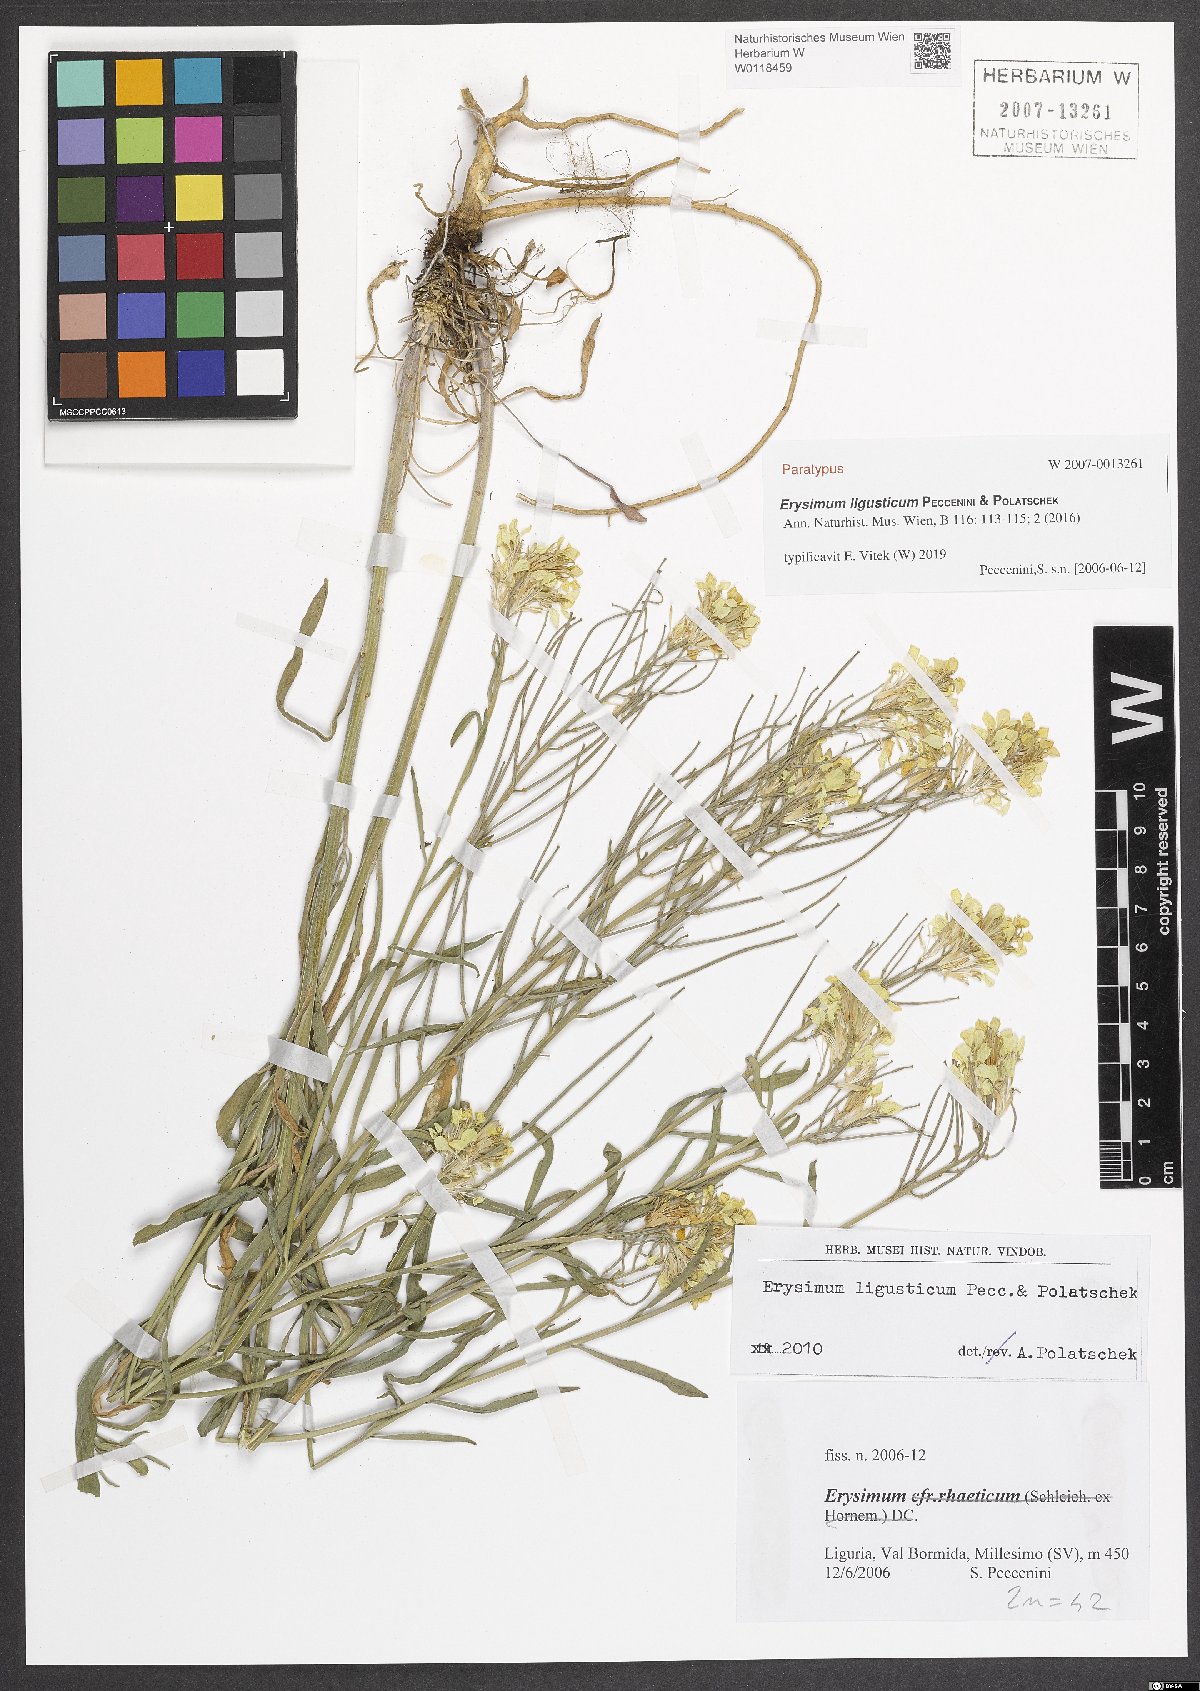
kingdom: Plantae
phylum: Tracheophyta
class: Magnoliopsida
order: Brassicales
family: Brassicaceae
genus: Erysimum
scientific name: Erysimum ligusticum
